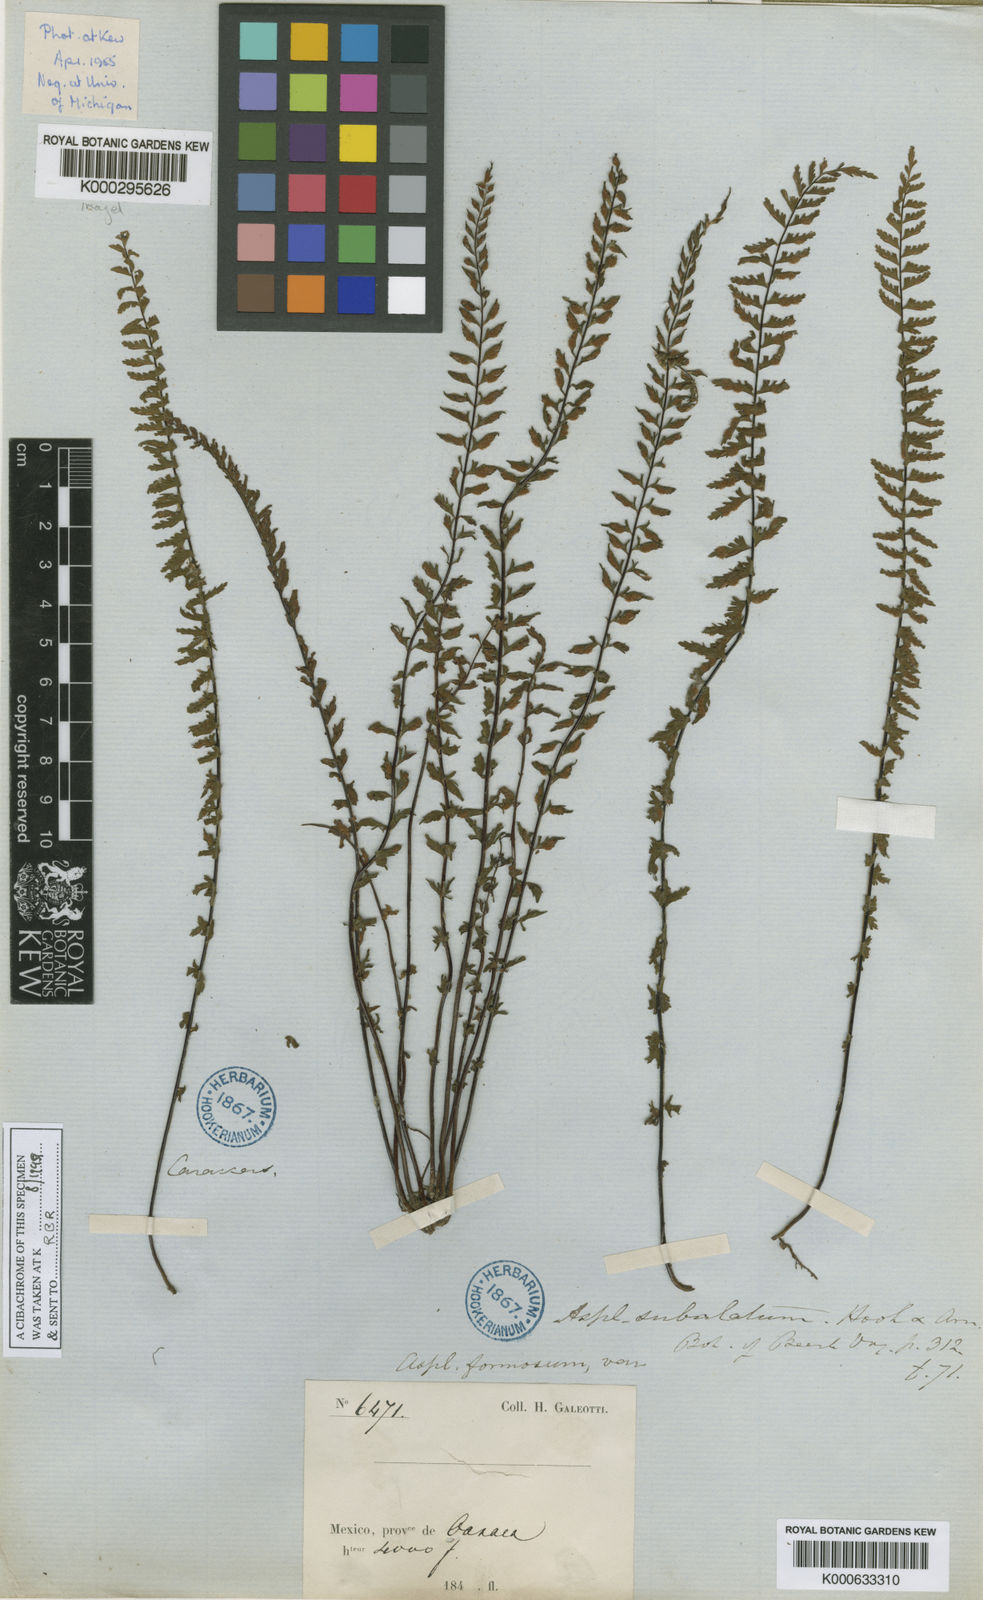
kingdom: Plantae
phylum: Tracheophyta
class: Polypodiopsida
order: Polypodiales
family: Aspleniaceae
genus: Asplenium
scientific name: Asplenium formosum
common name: Showy spleenwort
